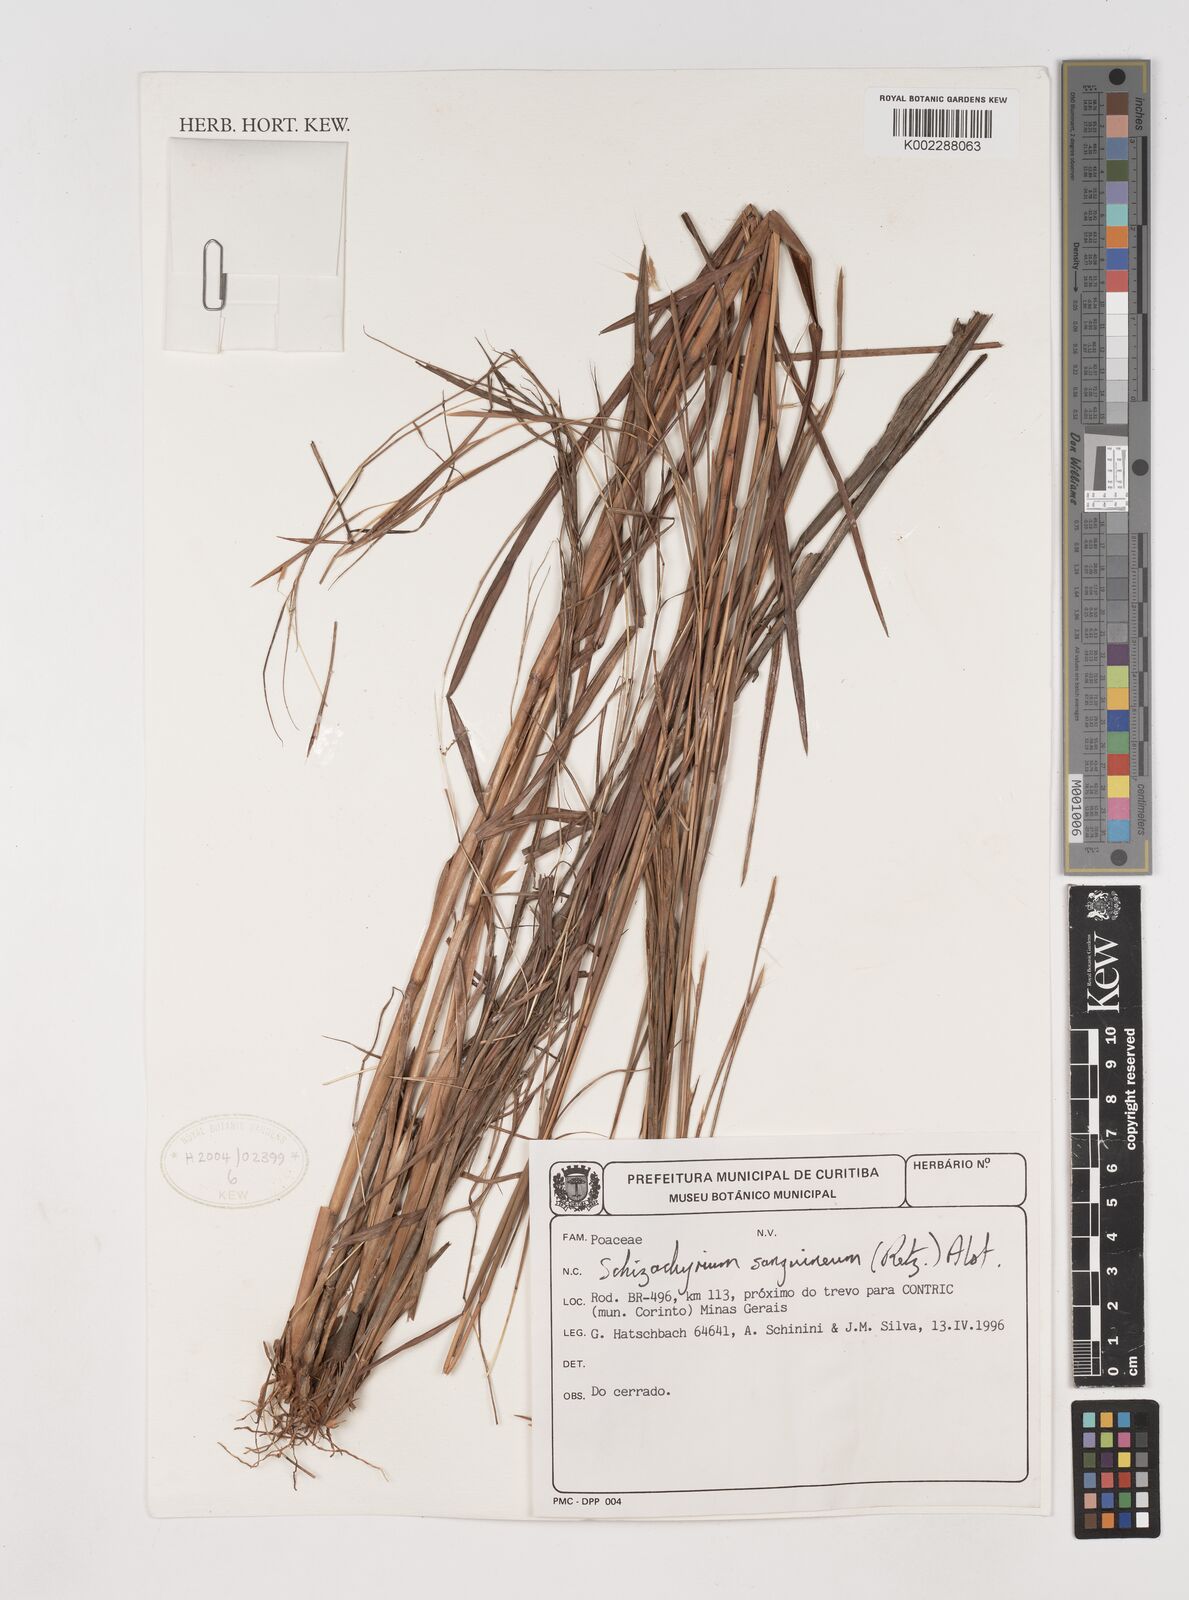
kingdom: Plantae
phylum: Tracheophyta
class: Liliopsida
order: Poales
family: Poaceae
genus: Schizachyrium
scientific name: Schizachyrium sanguineum
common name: Crimson bluestem
